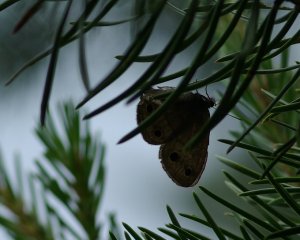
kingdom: Animalia
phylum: Arthropoda
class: Insecta
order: Lepidoptera
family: Nymphalidae
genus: Euptychia
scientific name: Euptychia cymela
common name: Little Wood Satyr
